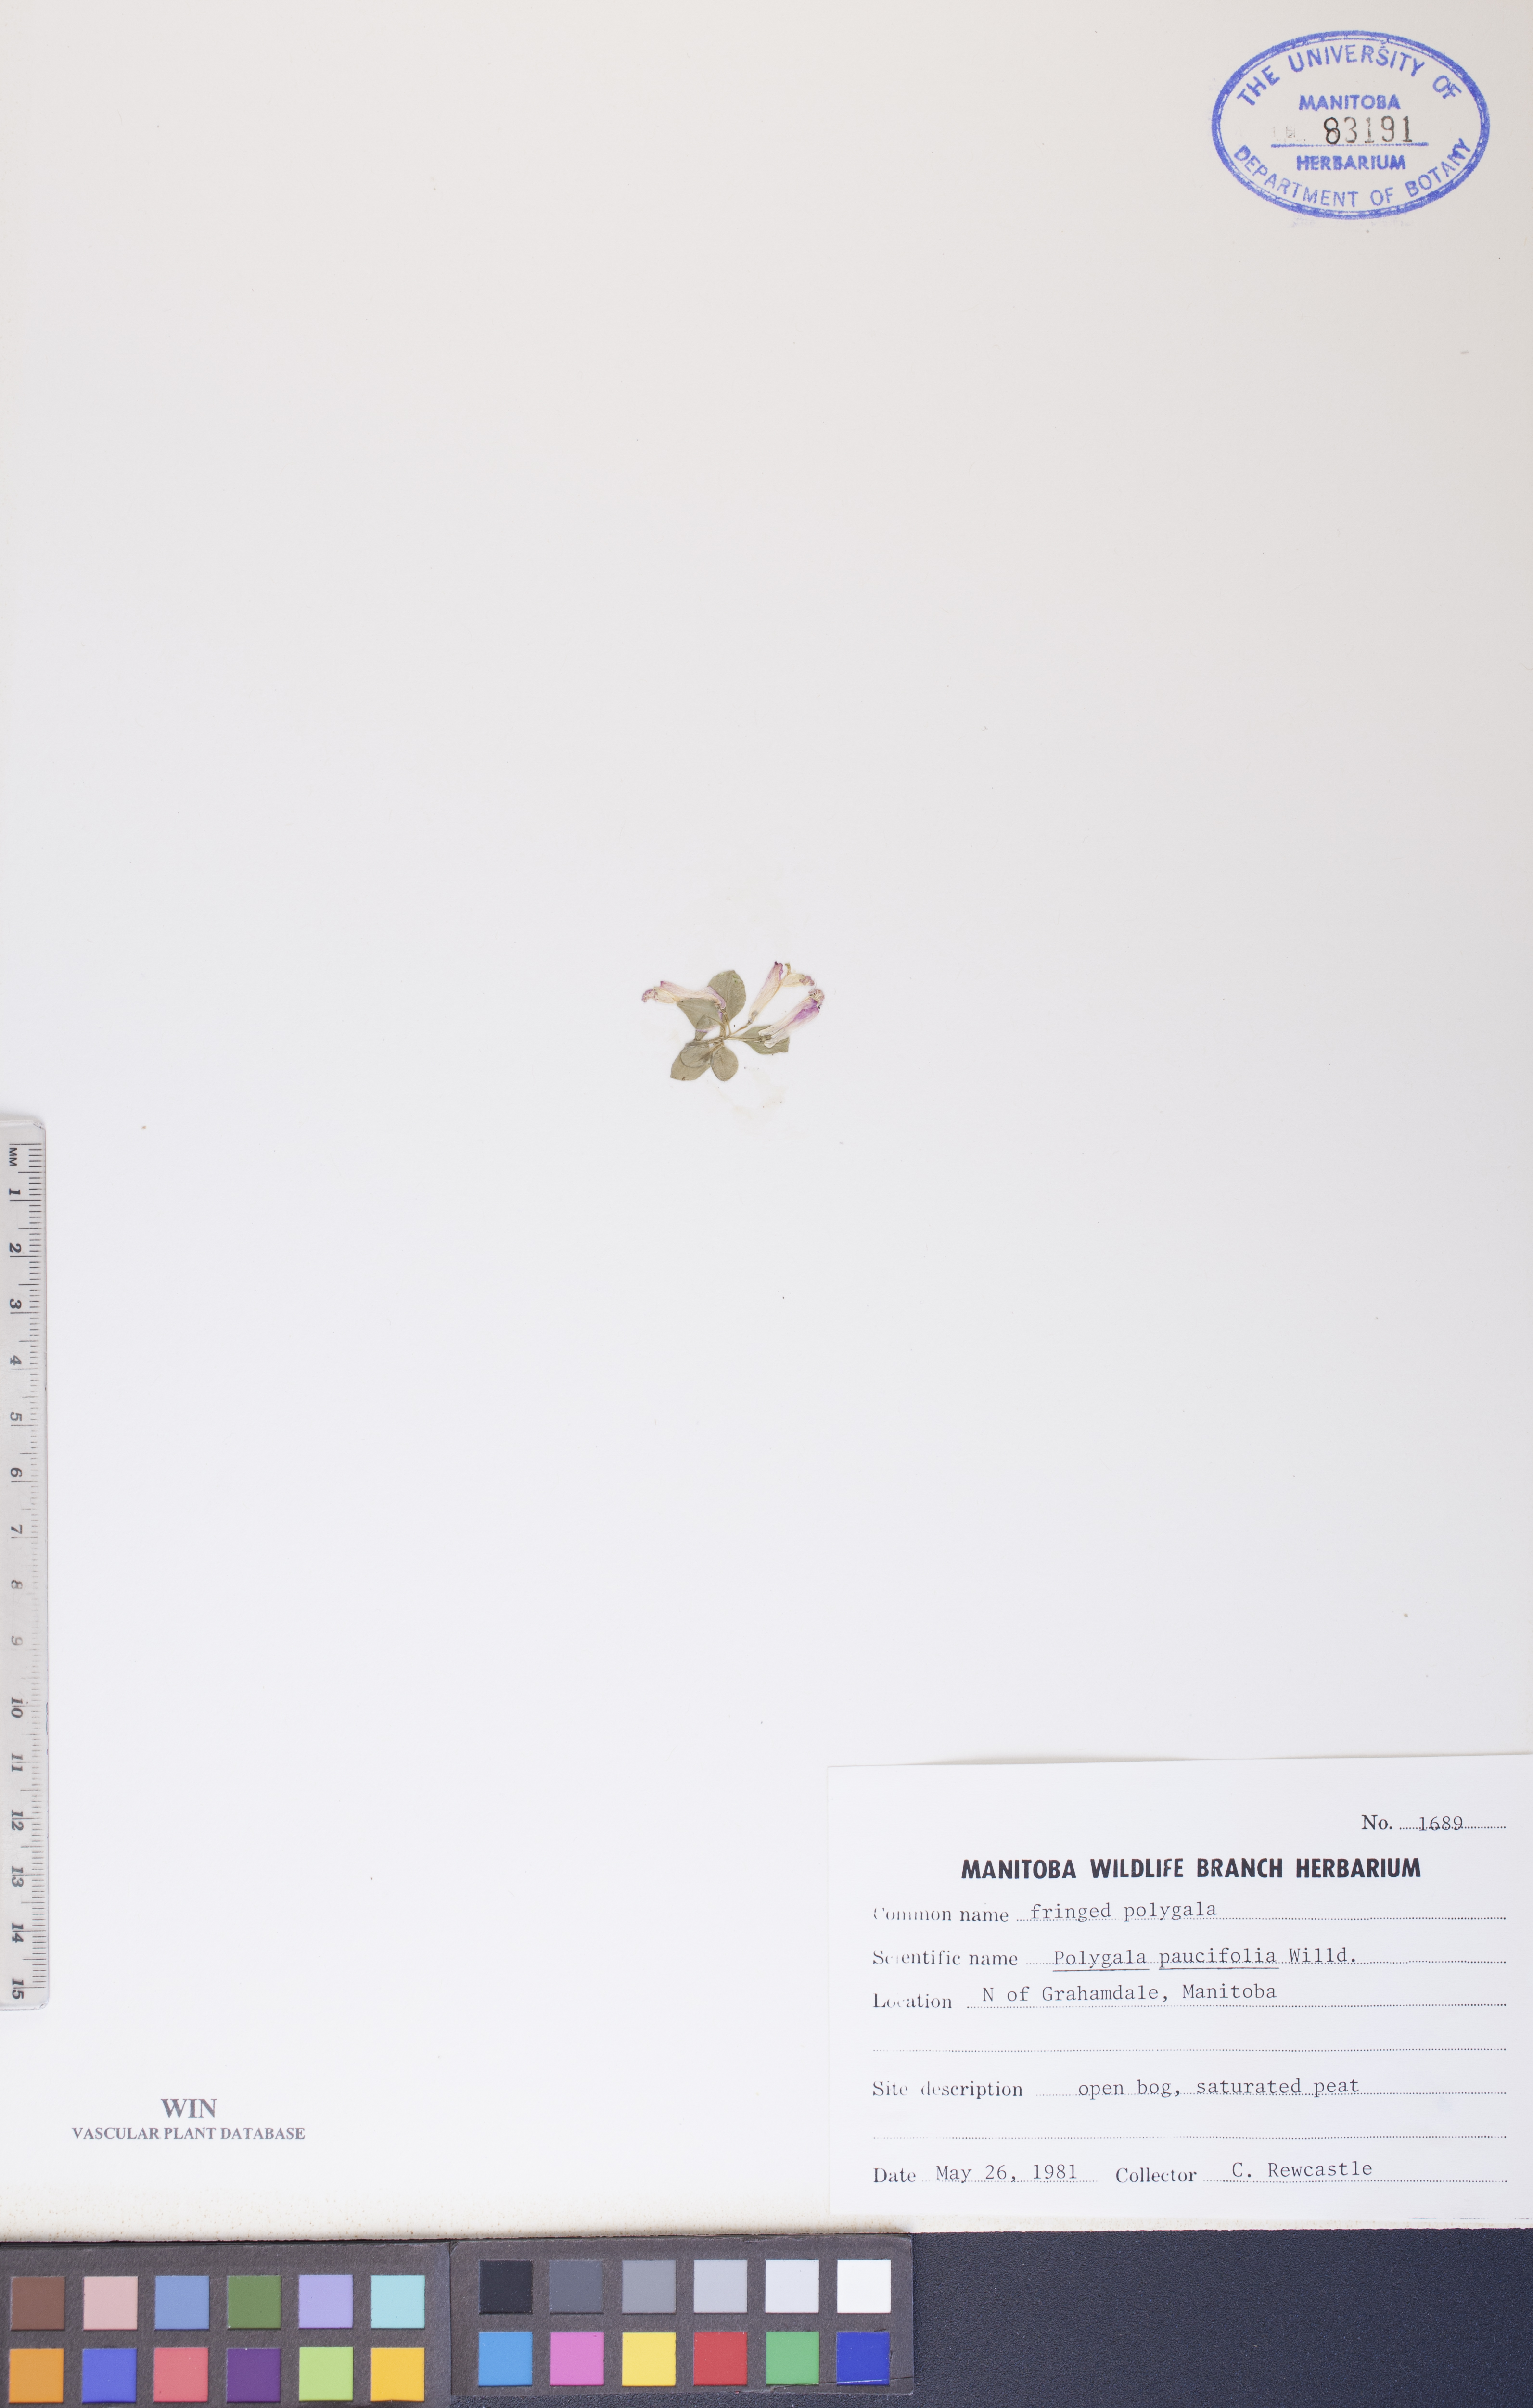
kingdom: Plantae
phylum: Tracheophyta
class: Magnoliopsida
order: Fabales
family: Polygalaceae
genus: Polygaloides
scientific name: Polygaloides paucifolia
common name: Bird-on-the-wing
